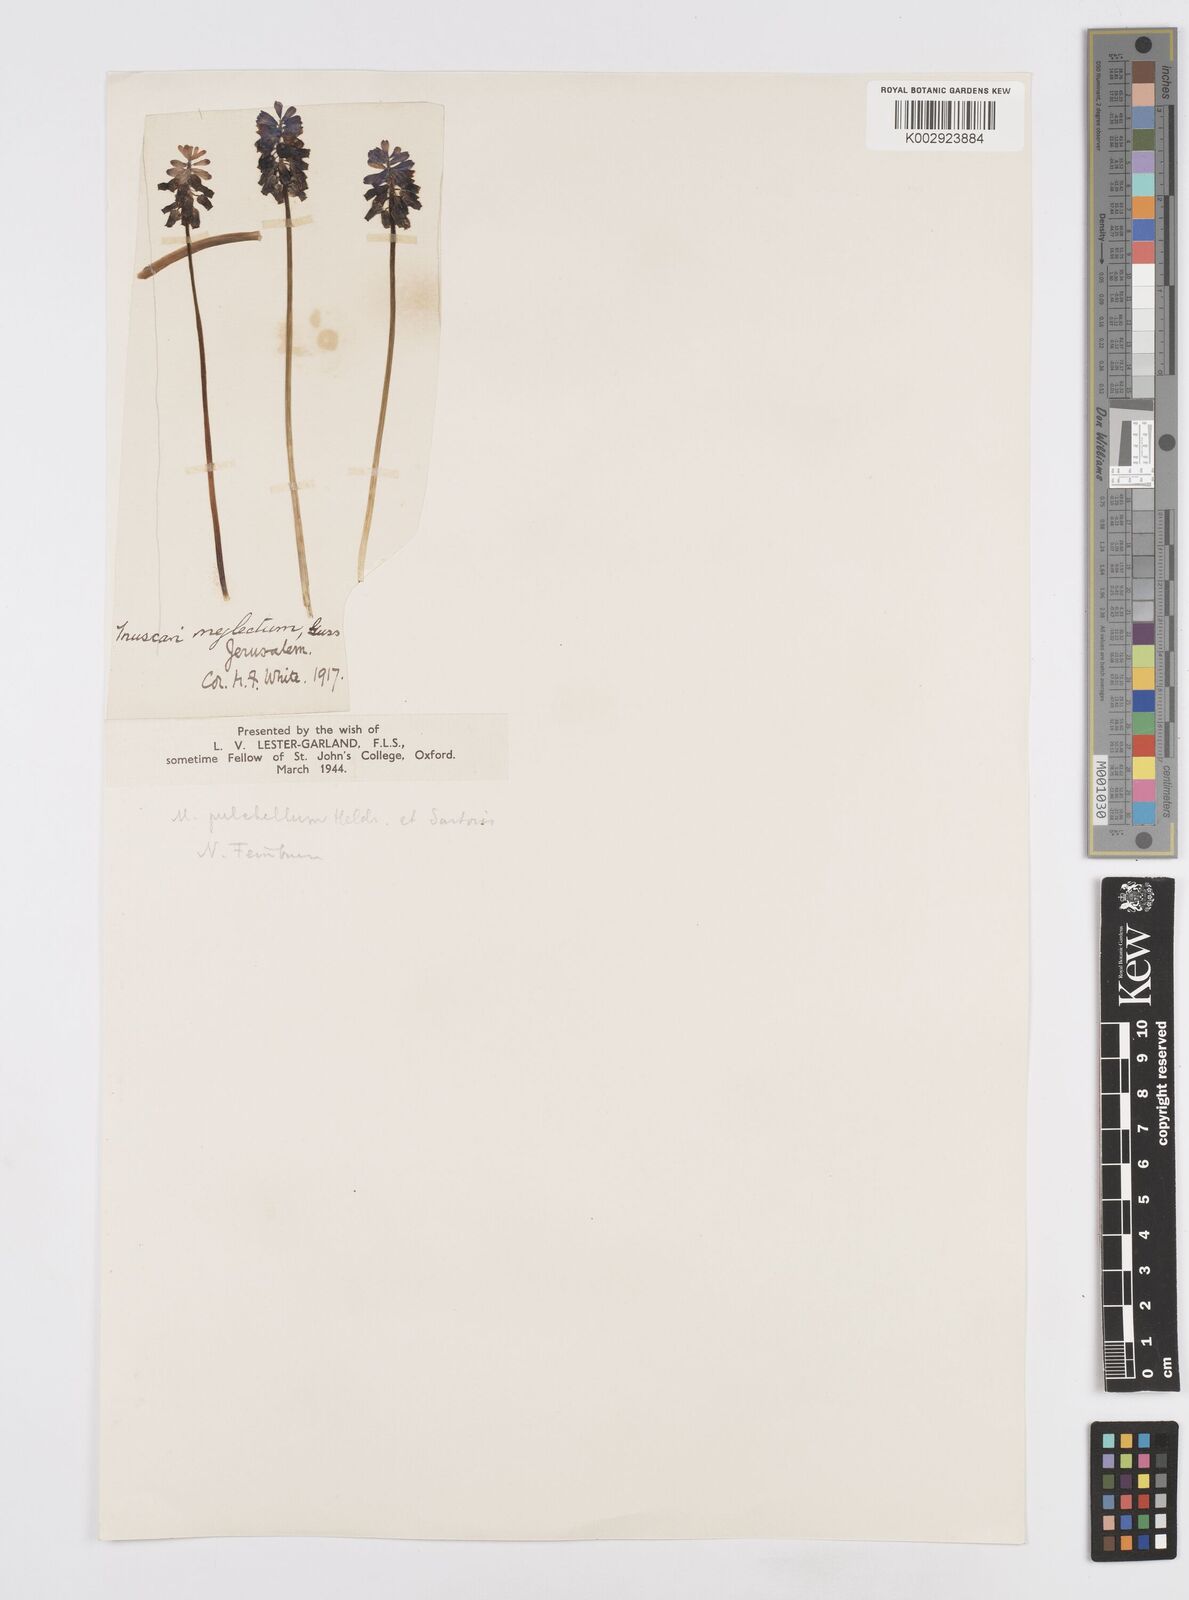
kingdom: Plantae
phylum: Tracheophyta
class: Liliopsida
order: Asparagales
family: Asparagaceae
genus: Muscari
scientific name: Muscari pulchellum
